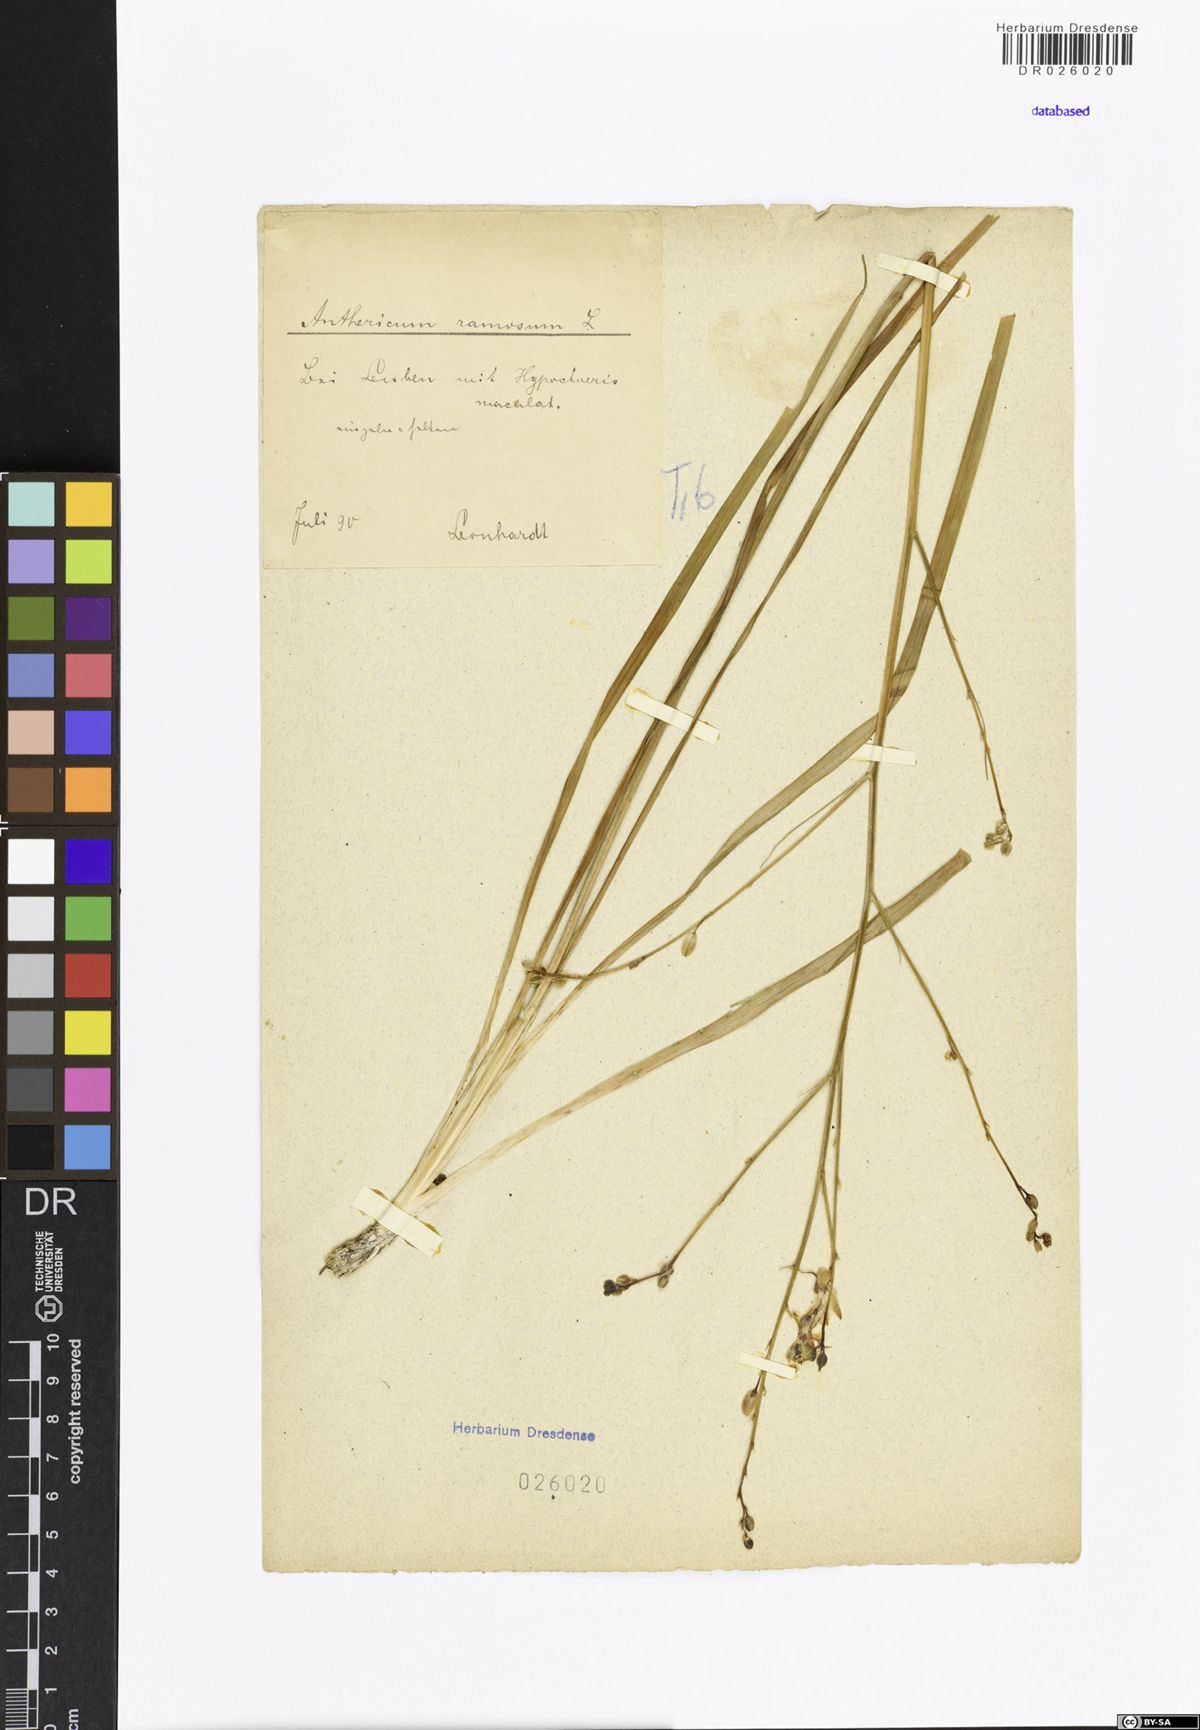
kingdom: Plantae
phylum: Tracheophyta
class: Liliopsida
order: Asparagales
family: Asparagaceae
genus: Anthericum
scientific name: Anthericum ramosum
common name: Branched st. bernard's-lily
